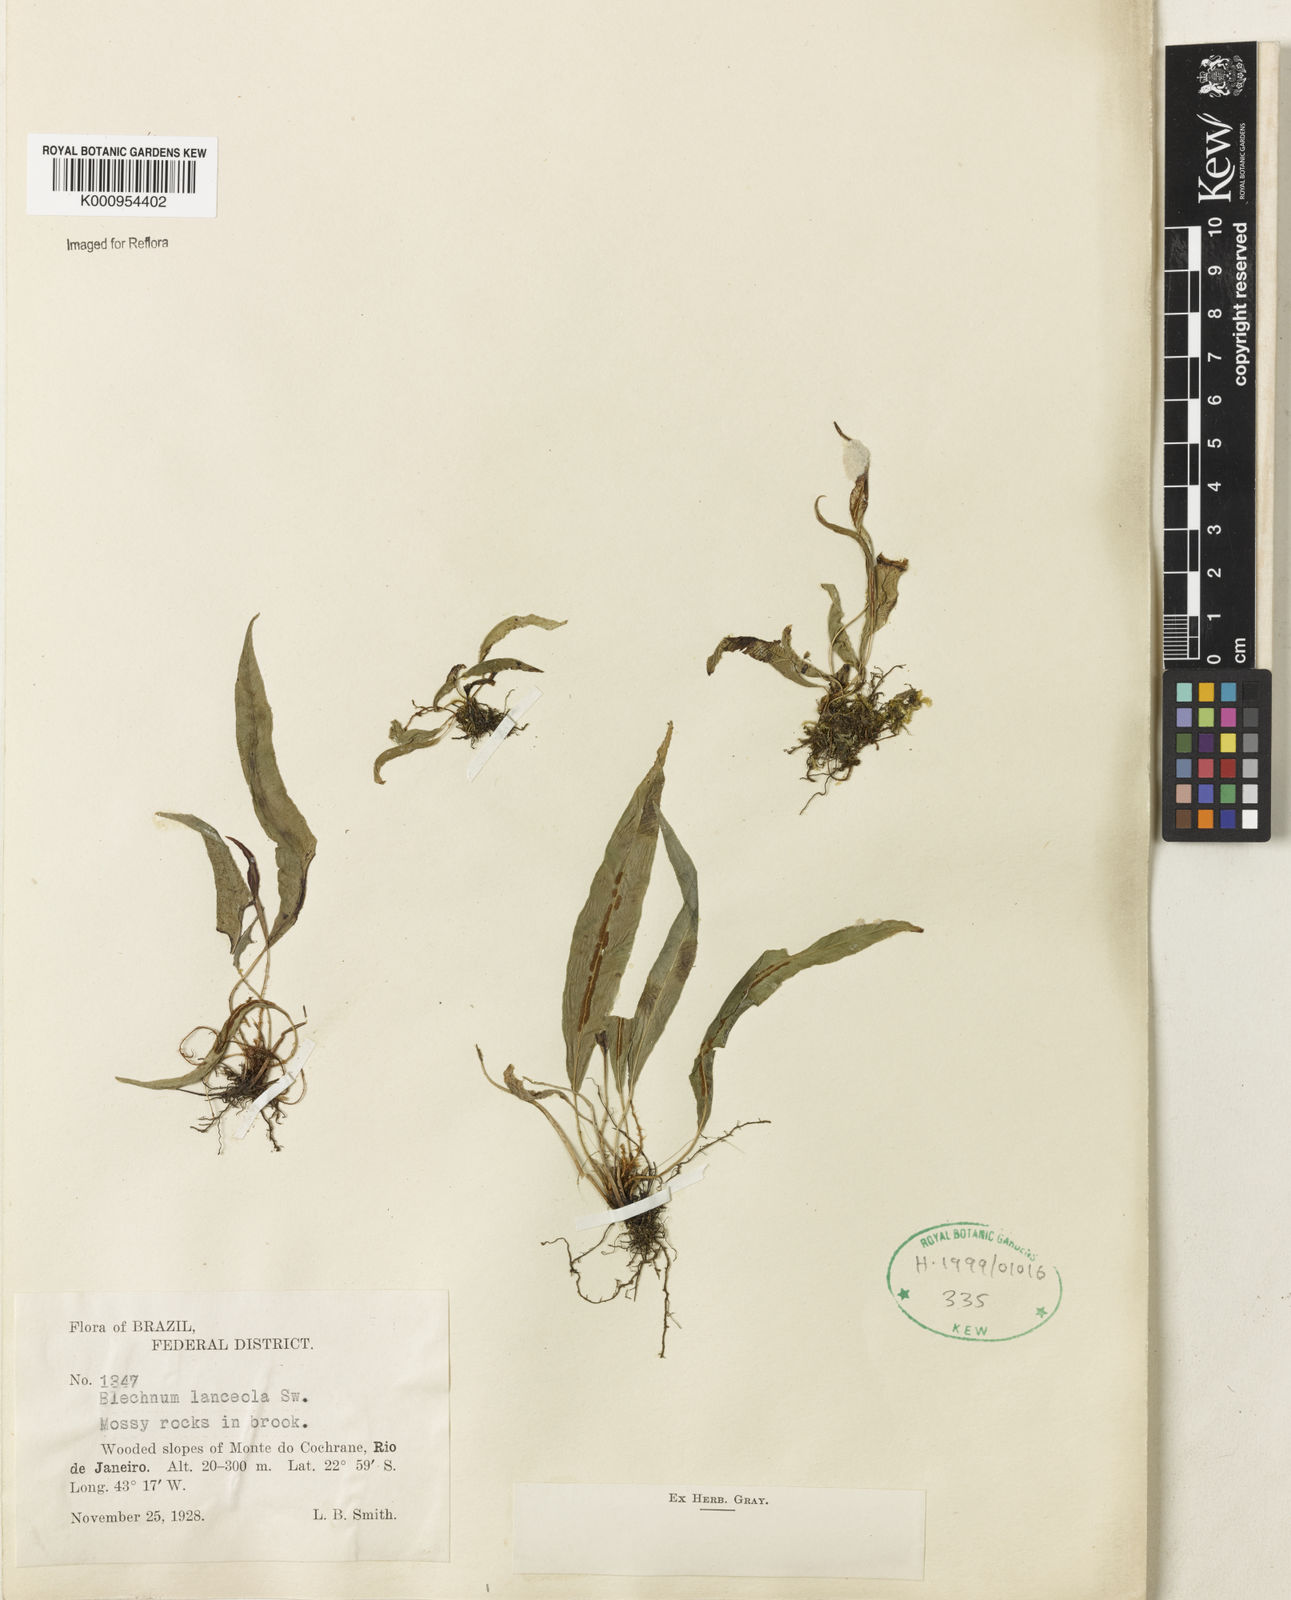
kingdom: Plantae
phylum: Tracheophyta
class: Polypodiopsida
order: Polypodiales
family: Blechnaceae
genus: Blechnum
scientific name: Blechnum lanceola
